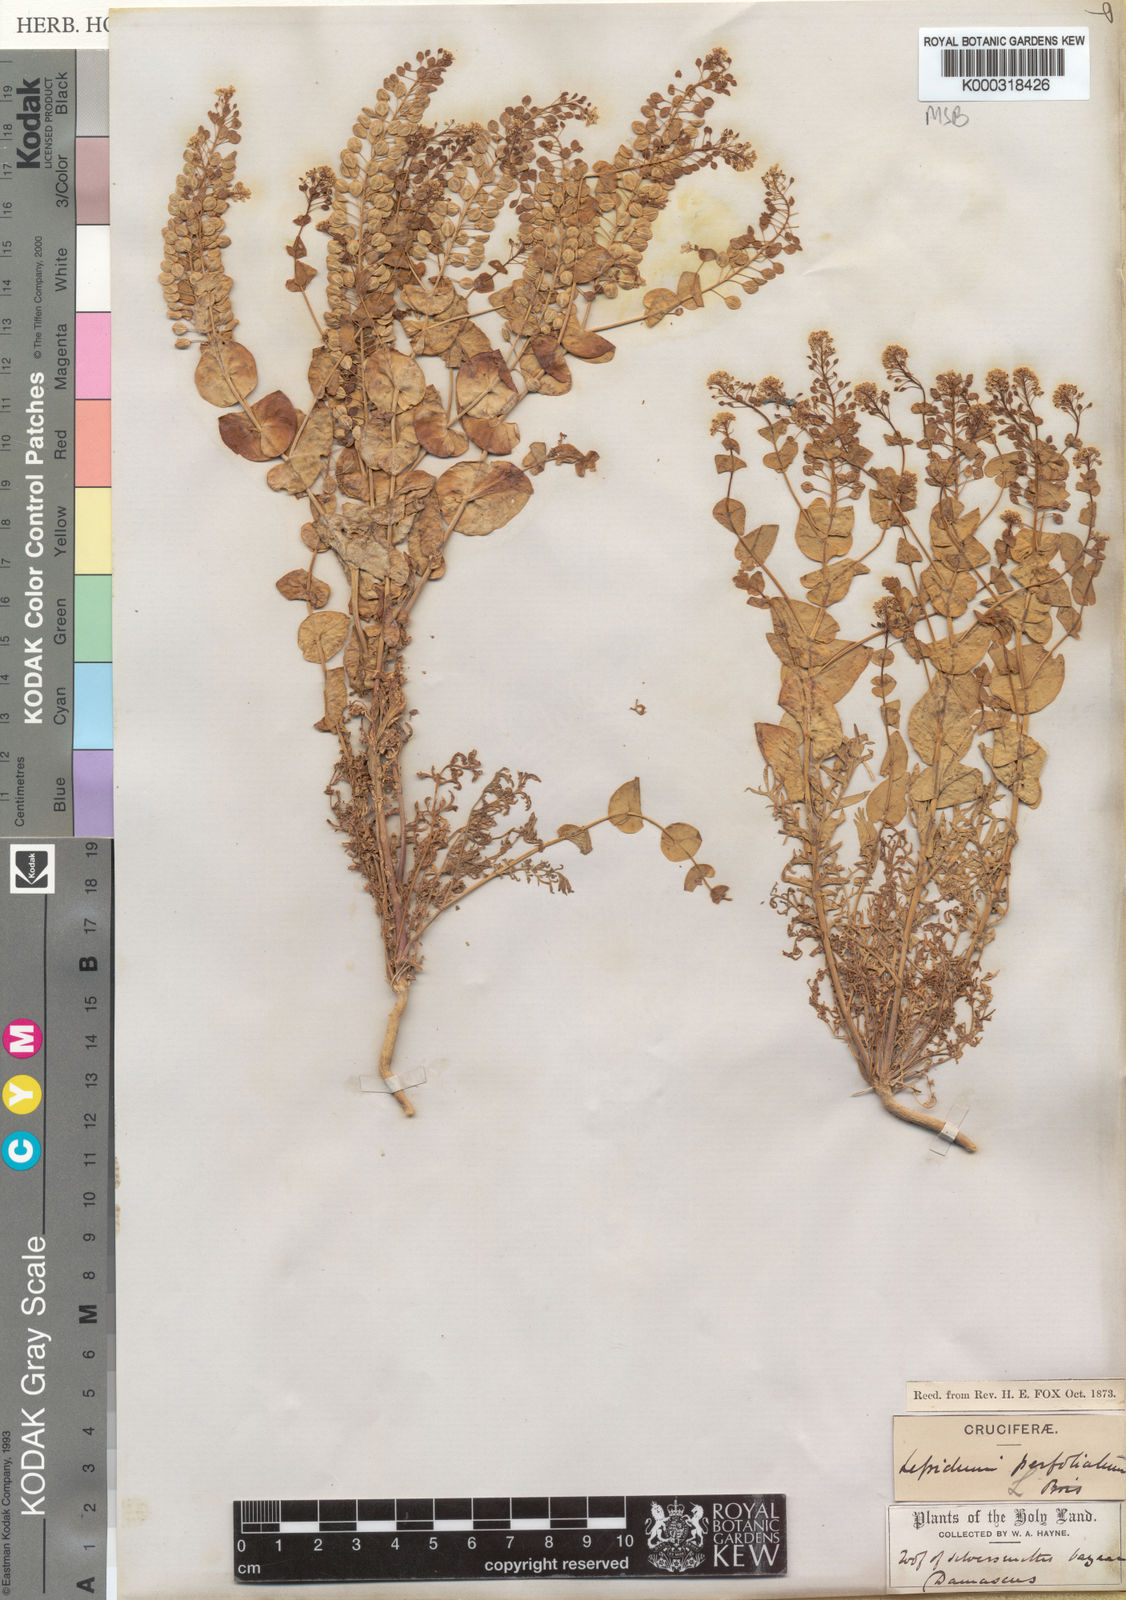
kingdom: Plantae
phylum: Tracheophyta
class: Magnoliopsida
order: Brassicales
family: Brassicaceae
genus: Lepidium
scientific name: Lepidium perfoliatum
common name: Perfoliate pepperwort
